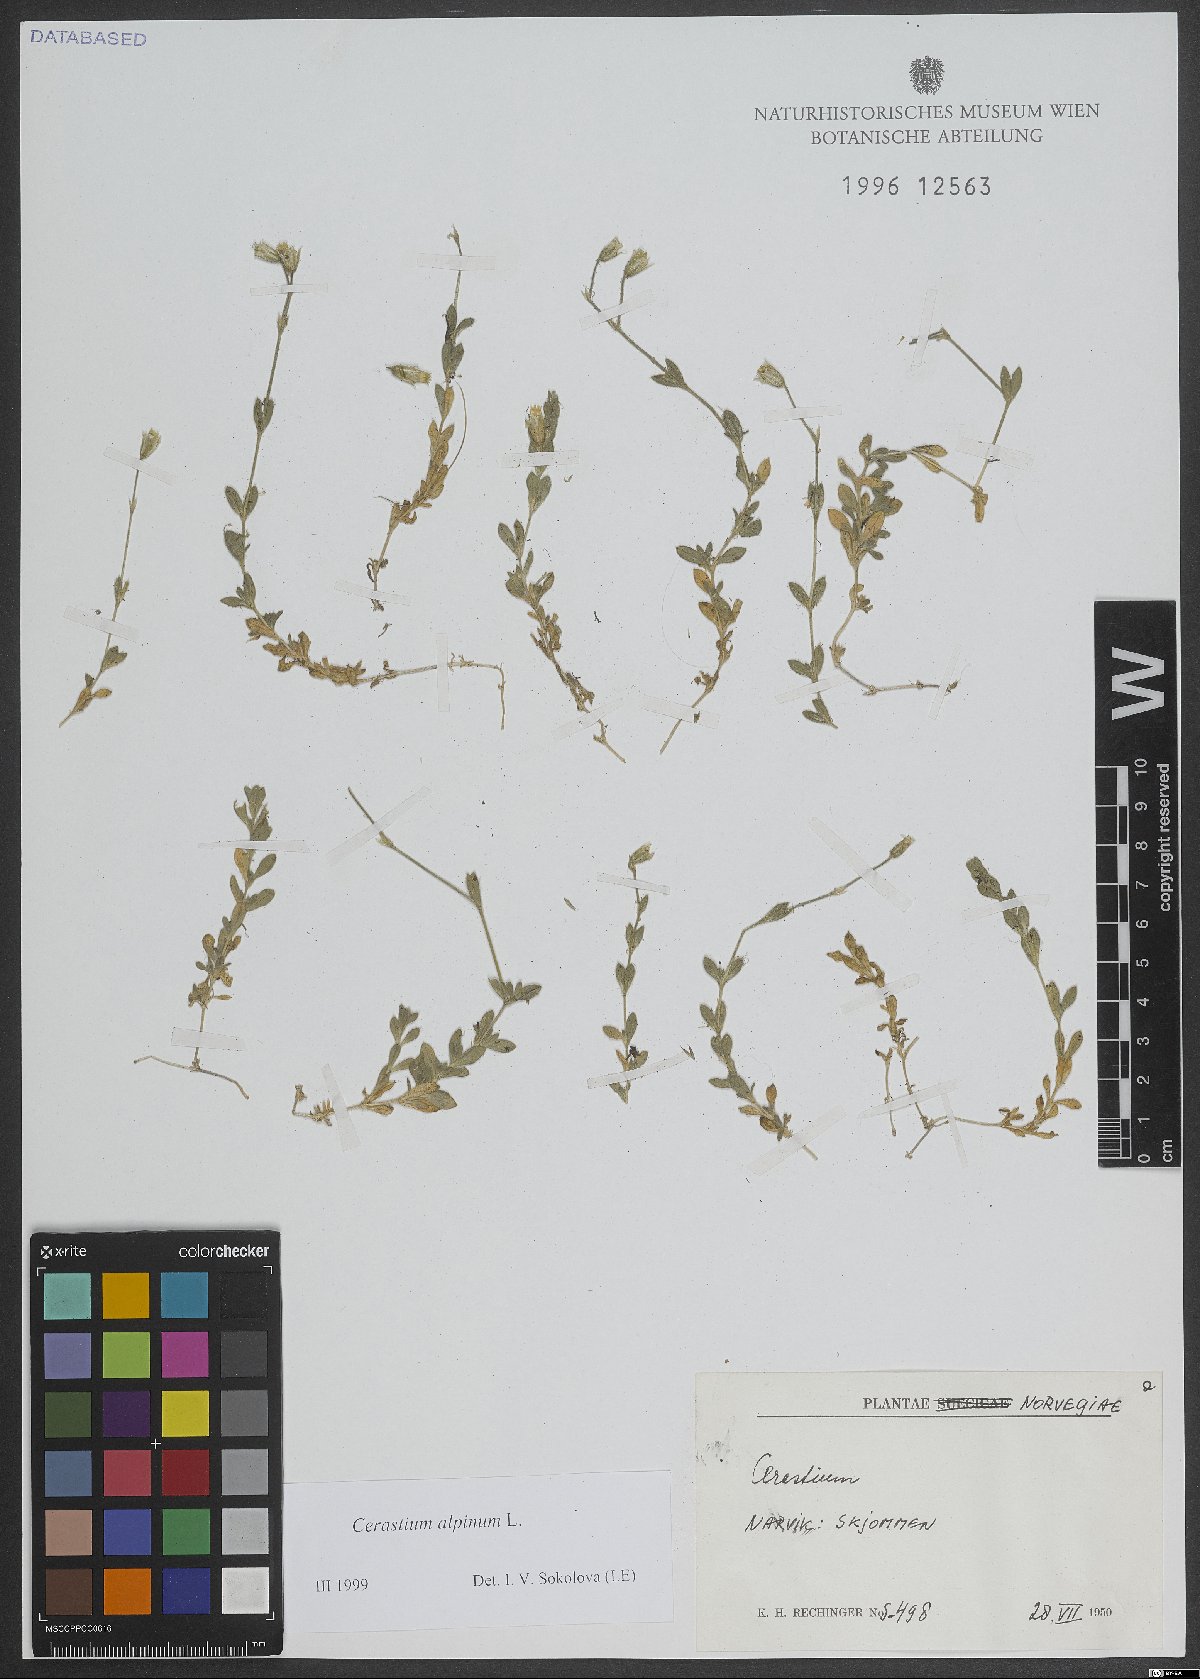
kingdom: Plantae
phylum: Tracheophyta
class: Magnoliopsida
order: Caryophyllales
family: Caryophyllaceae
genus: Cerastium
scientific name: Cerastium alpinum
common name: Alpine mouse-ear
